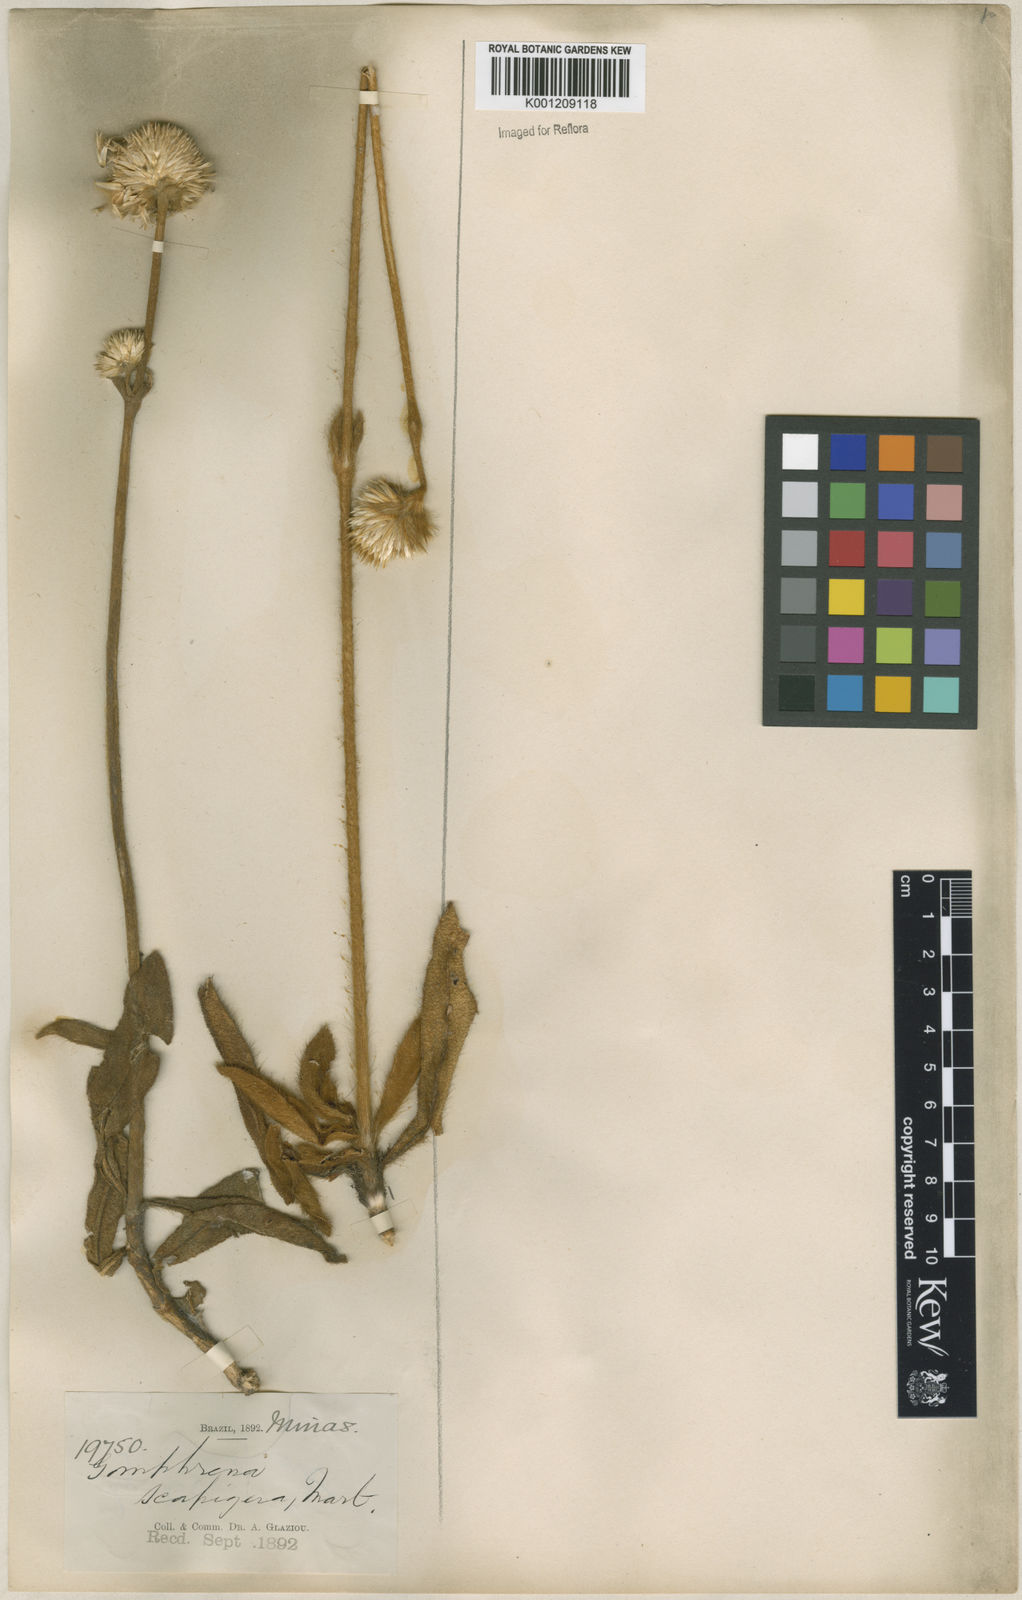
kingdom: Plantae
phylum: Tracheophyta
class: Magnoliopsida
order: Caryophyllales
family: Amaranthaceae
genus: Gomphrena
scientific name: Gomphrena scapigera
